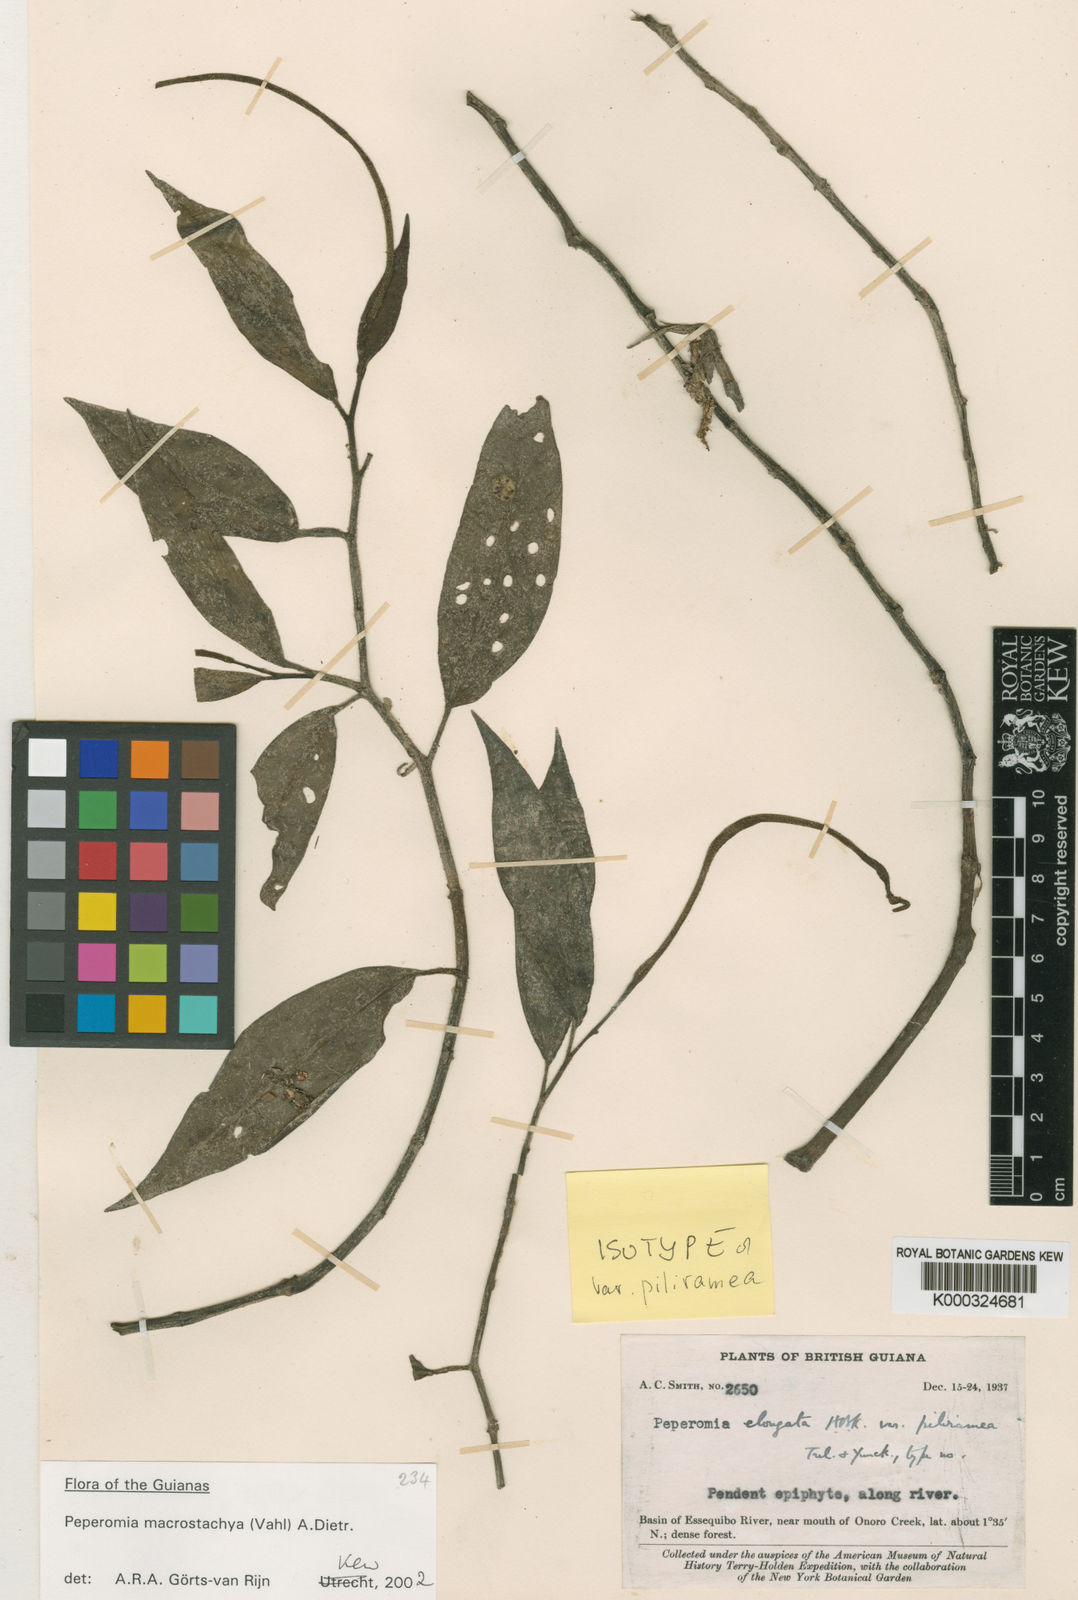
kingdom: Plantae
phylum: Tracheophyta
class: Magnoliopsida
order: Piperales
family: Piperaceae
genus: Peperomia
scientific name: Peperomia
